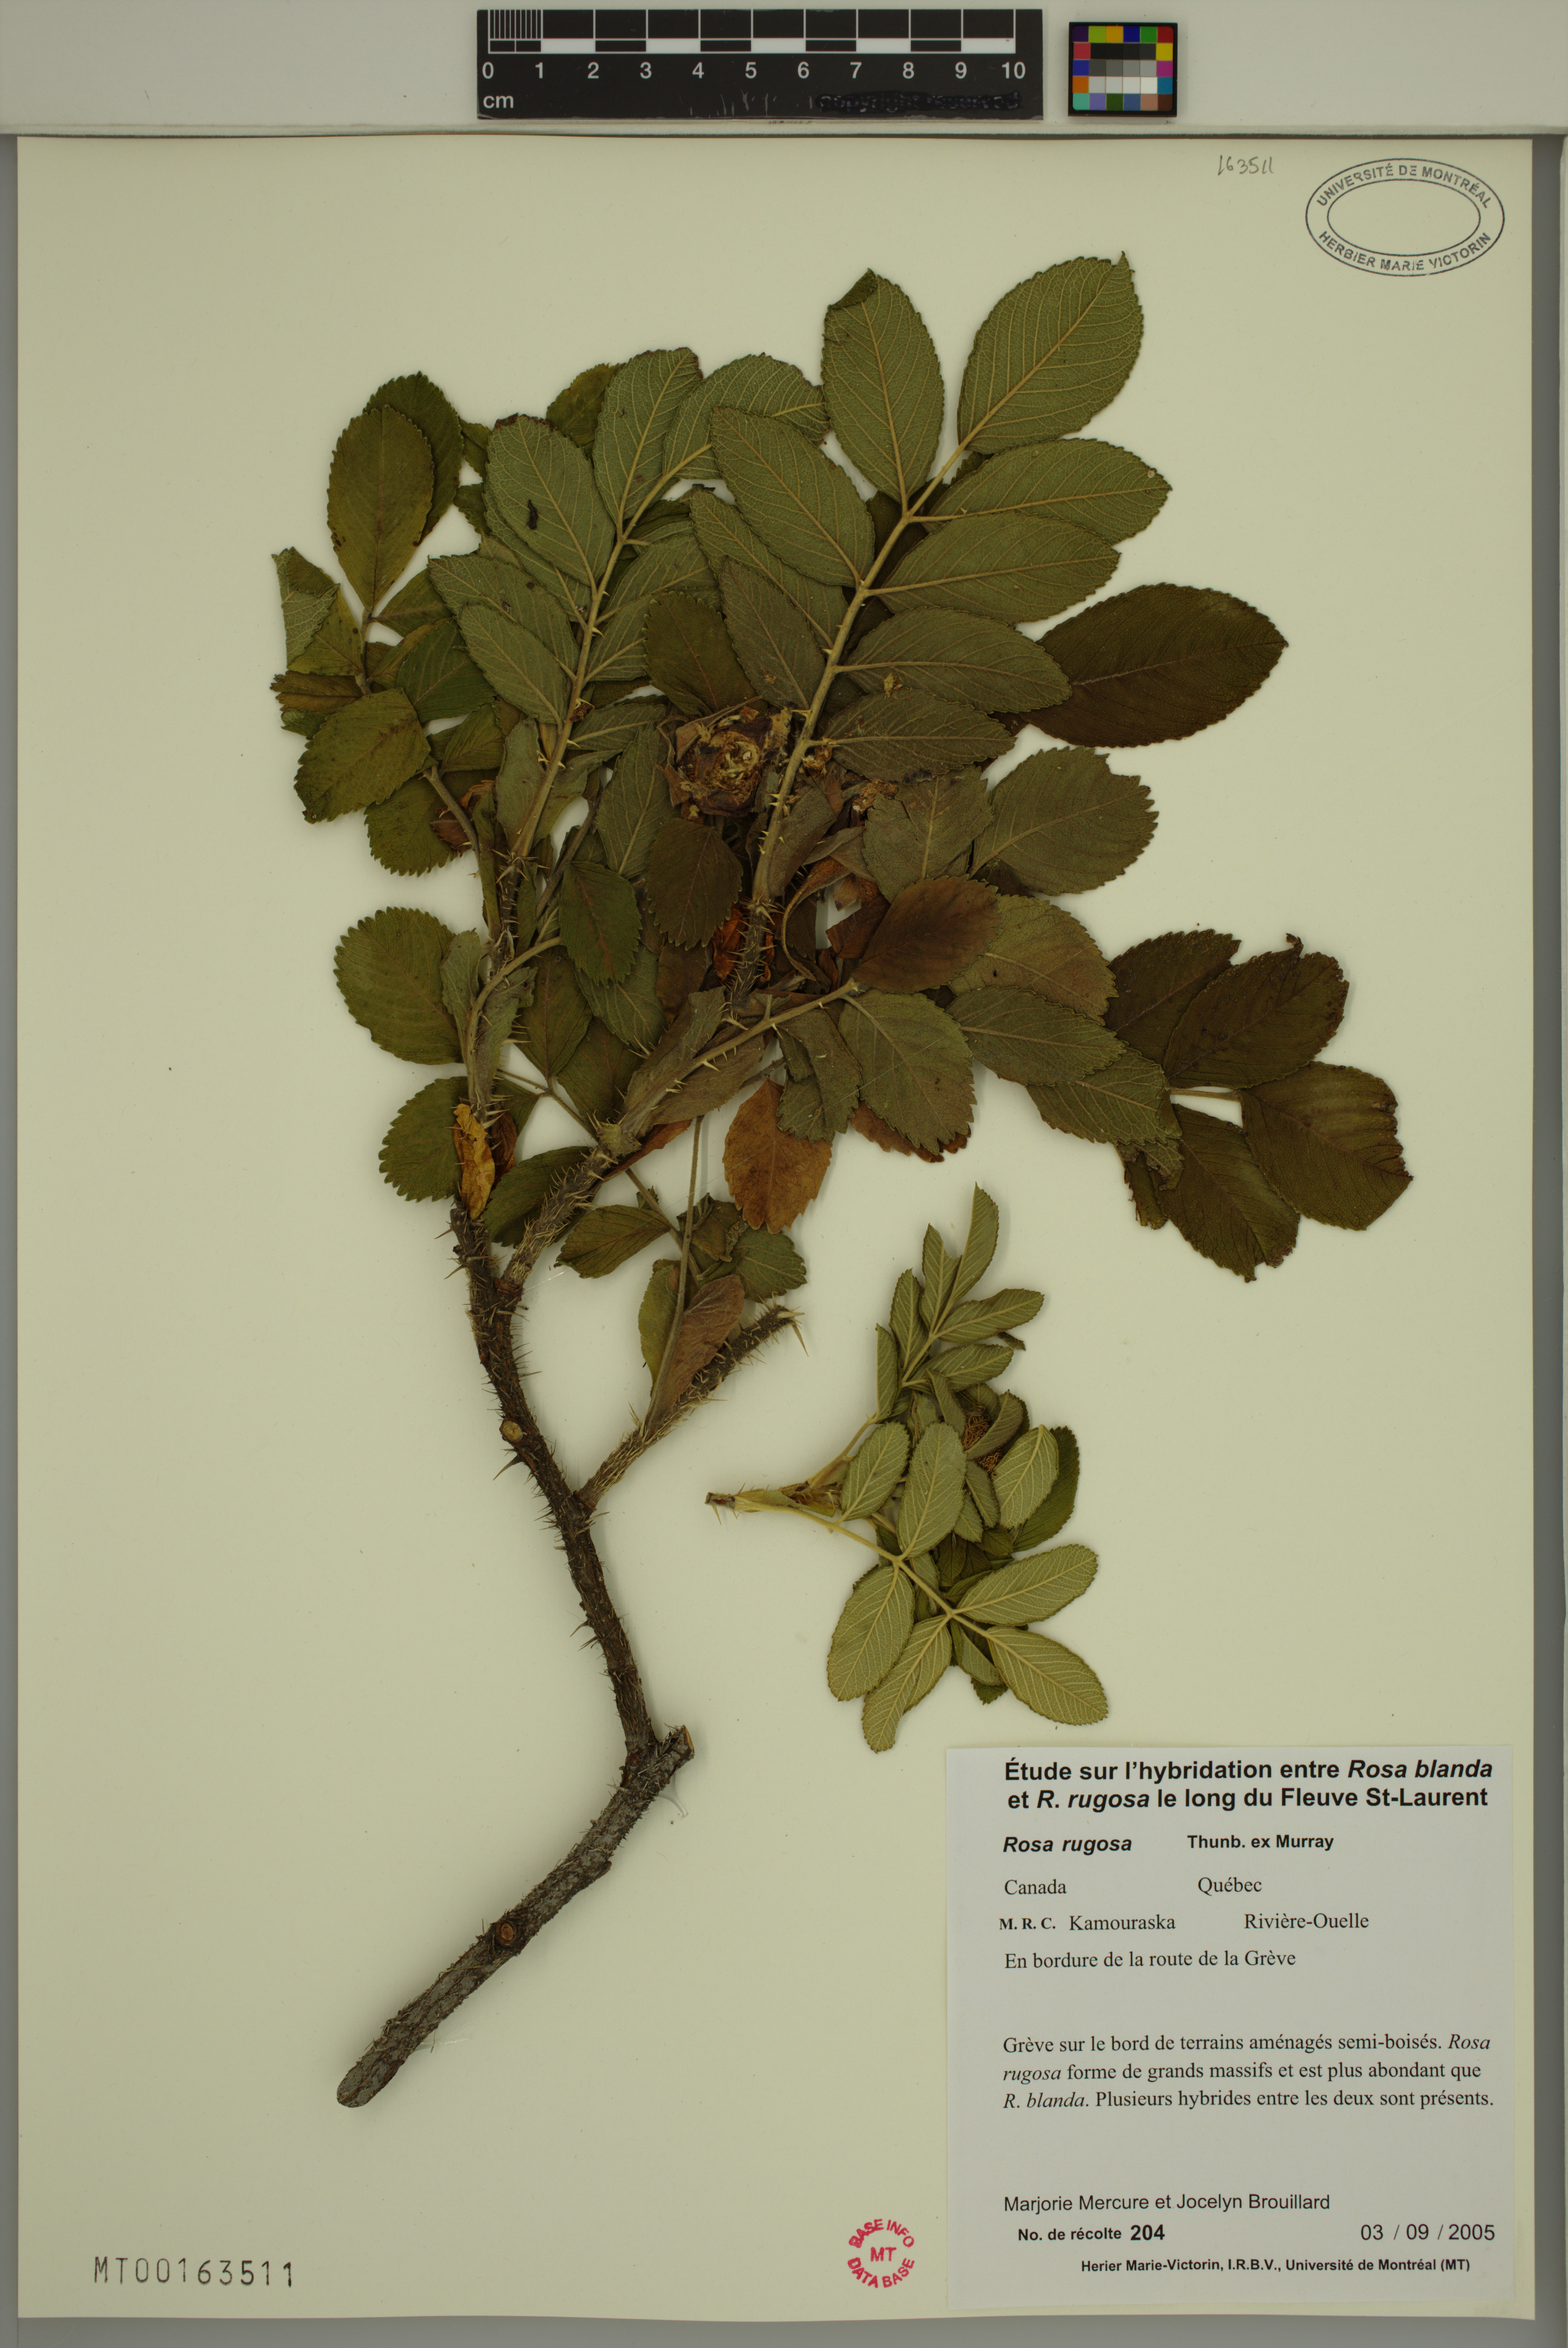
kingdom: Plantae
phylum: Tracheophyta
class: Magnoliopsida
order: Rosales
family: Rosaceae
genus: Rosa
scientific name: Rosa rugosa
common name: Japanese rose
